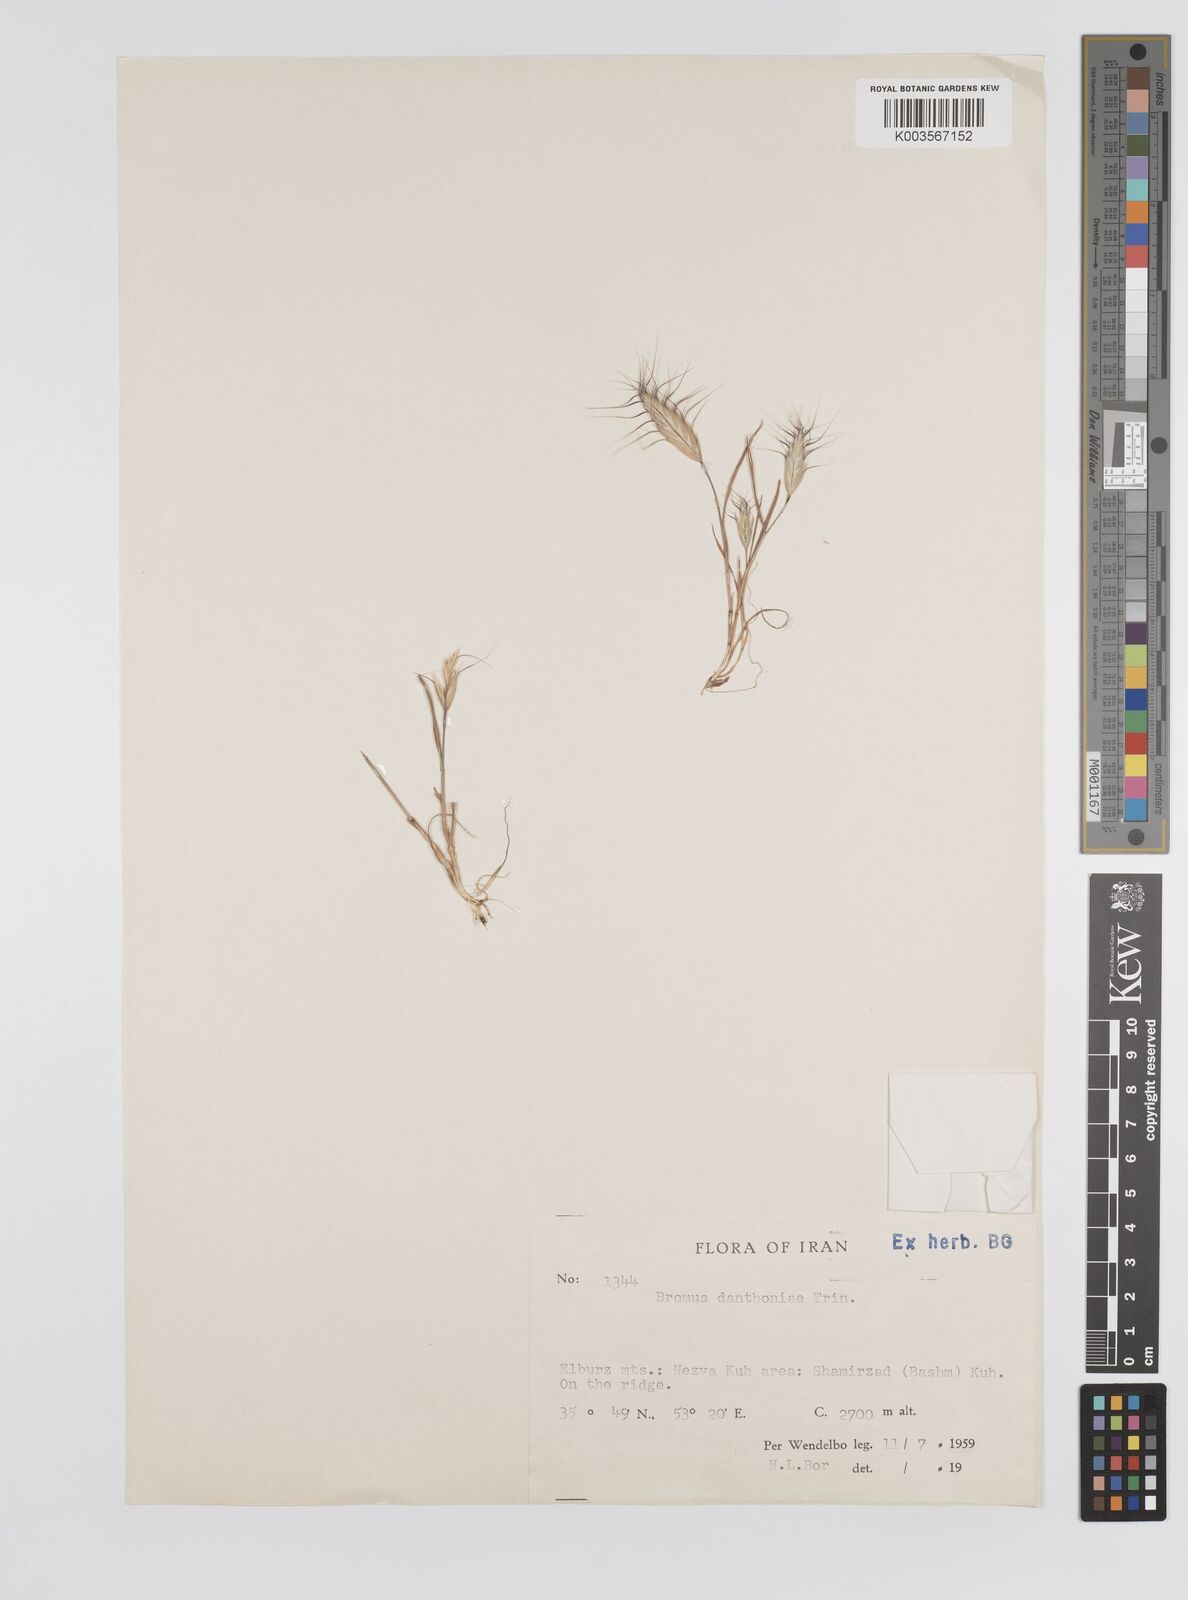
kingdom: Plantae
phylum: Tracheophyta
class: Liliopsida
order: Poales
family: Poaceae
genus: Bromus
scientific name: Bromus danthoniae
